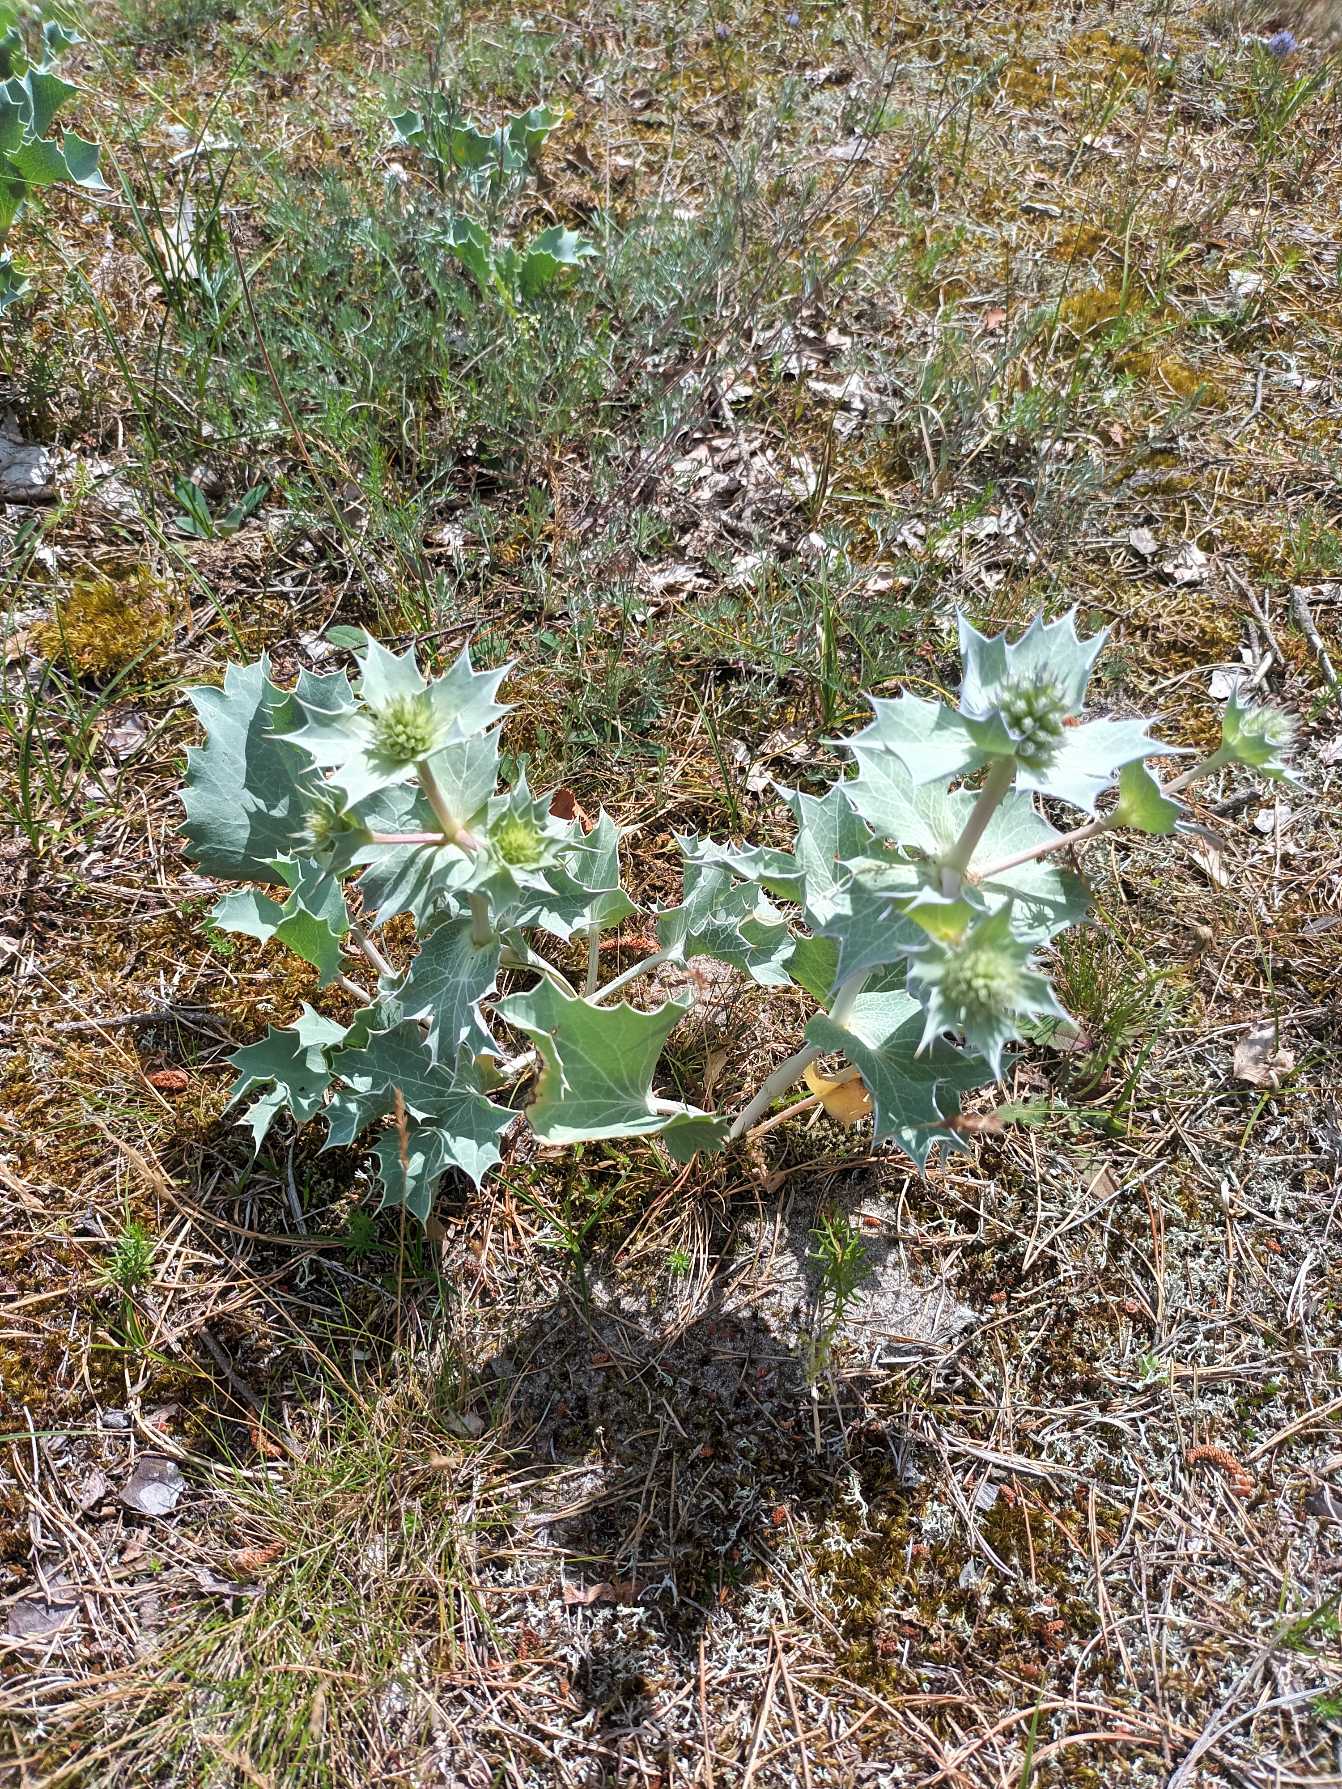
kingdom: Plantae
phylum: Tracheophyta
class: Magnoliopsida
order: Apiales
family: Apiaceae
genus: Eryngium
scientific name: Eryngium maritimum
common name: Strand-mandstro
